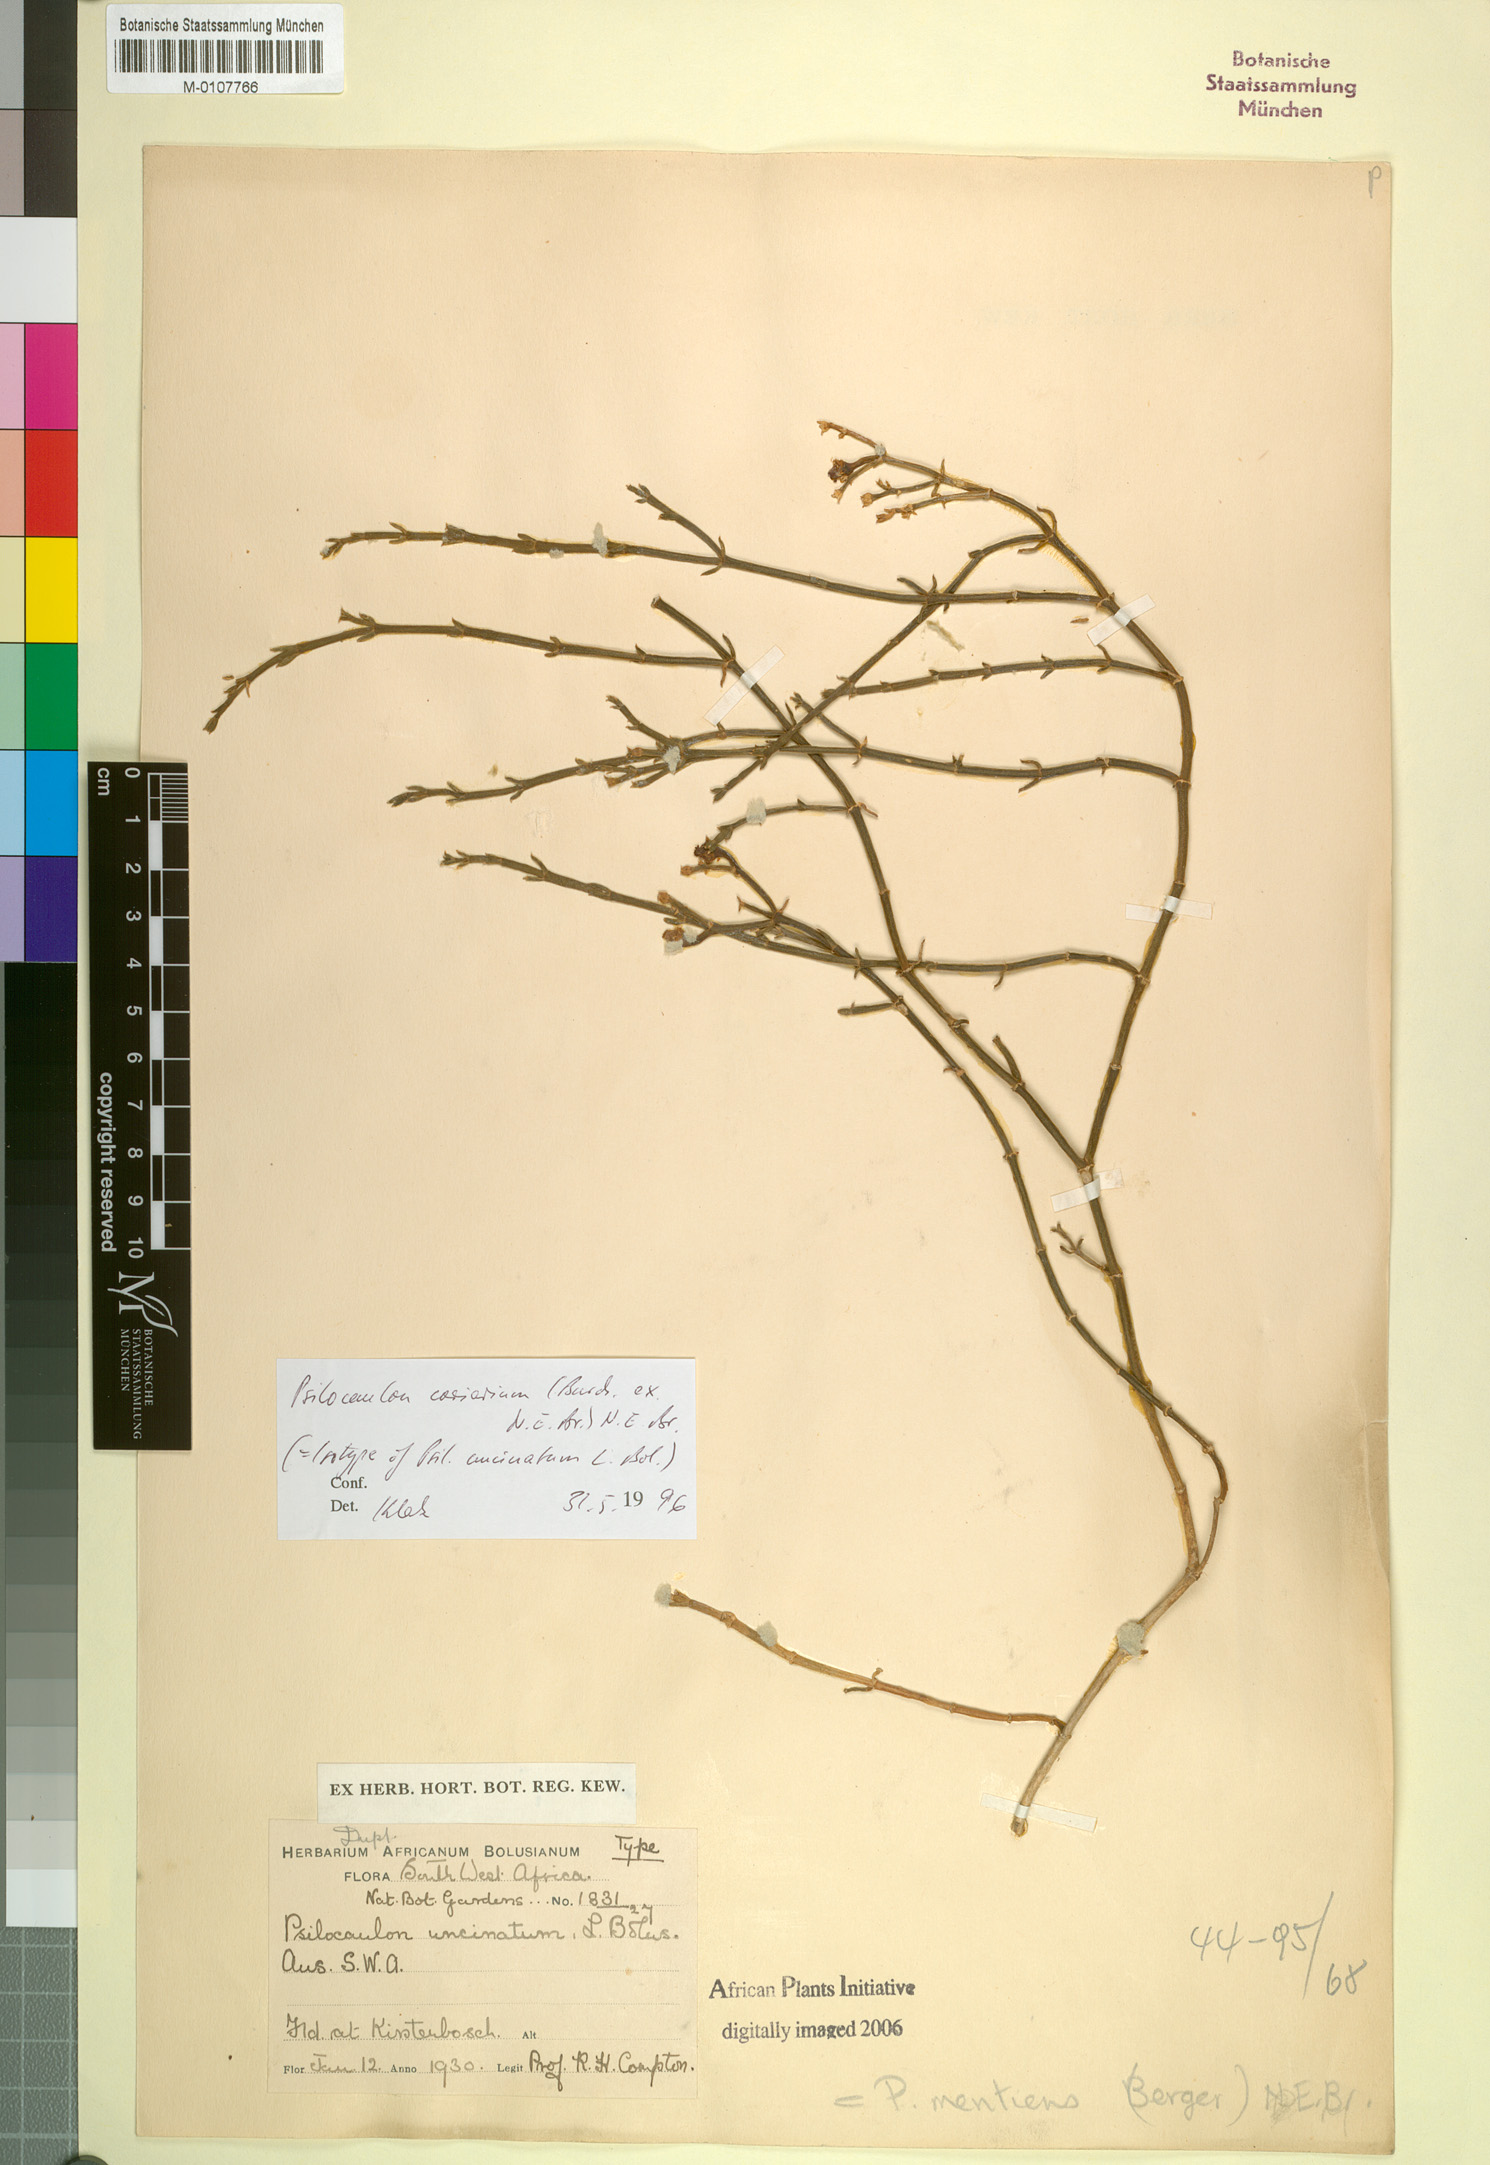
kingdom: Plantae
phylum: Tracheophyta
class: Magnoliopsida
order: Caryophyllales
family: Aizoaceae
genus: Mesembryanthemum
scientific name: Mesembryanthemum coriarium
